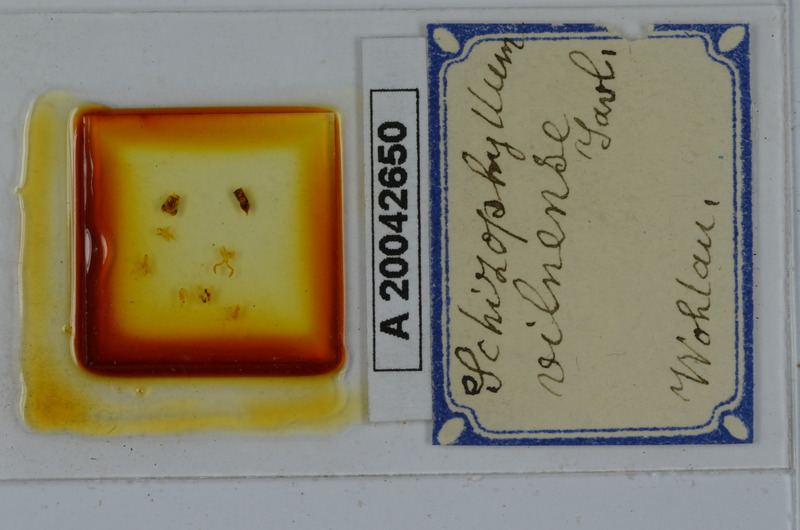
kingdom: Animalia
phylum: Arthropoda
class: Diplopoda
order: Julida
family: Julidae
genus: Rossiulus
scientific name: Rossiulus vilnensis
